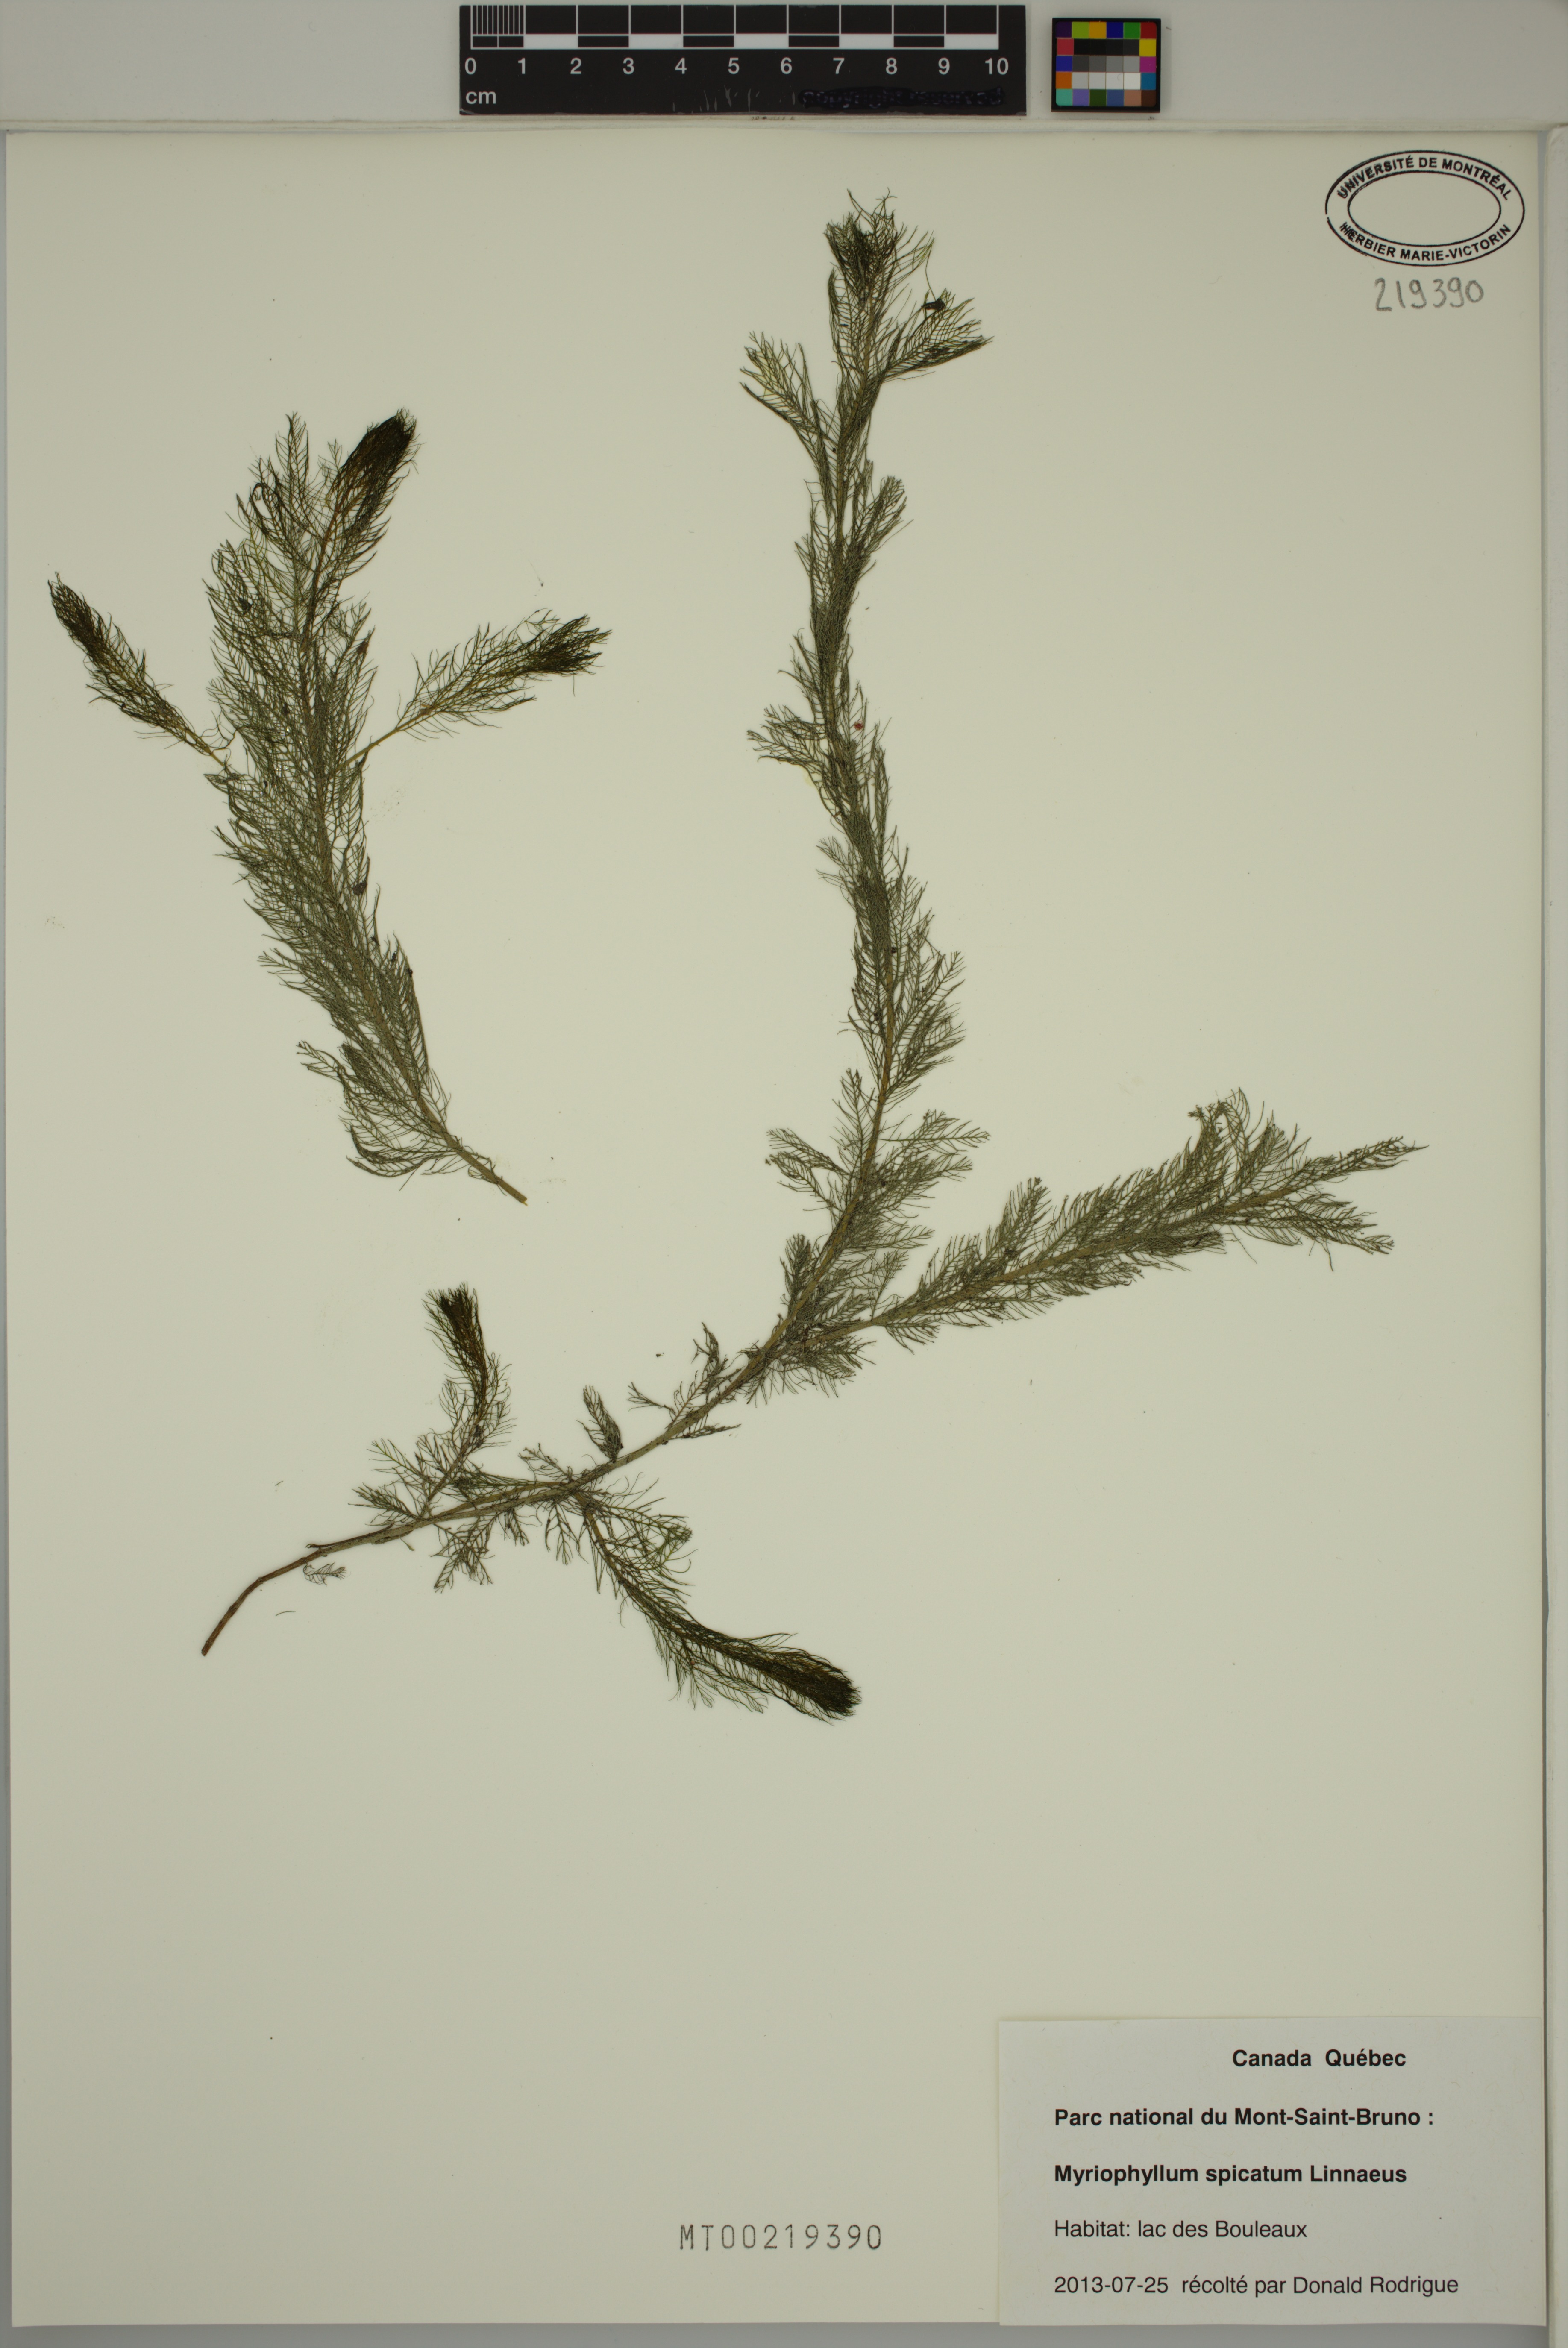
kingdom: Plantae
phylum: Tracheophyta
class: Magnoliopsida
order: Saxifragales
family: Haloragaceae
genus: Myriophyllum
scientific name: Myriophyllum spicatum
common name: Spiked water-milfoil
